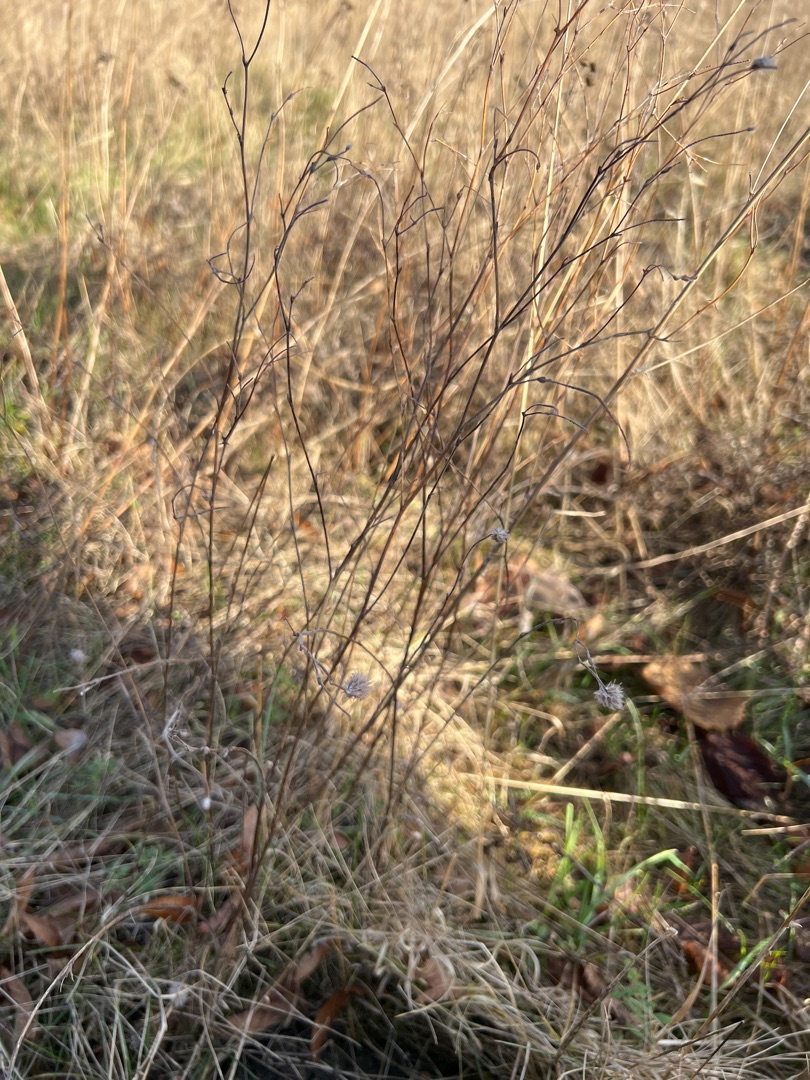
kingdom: Plantae
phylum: Tracheophyta
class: Magnoliopsida
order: Fabales
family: Fabaceae
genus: Trifolium
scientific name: Trifolium arvense
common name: Hare-kløver
